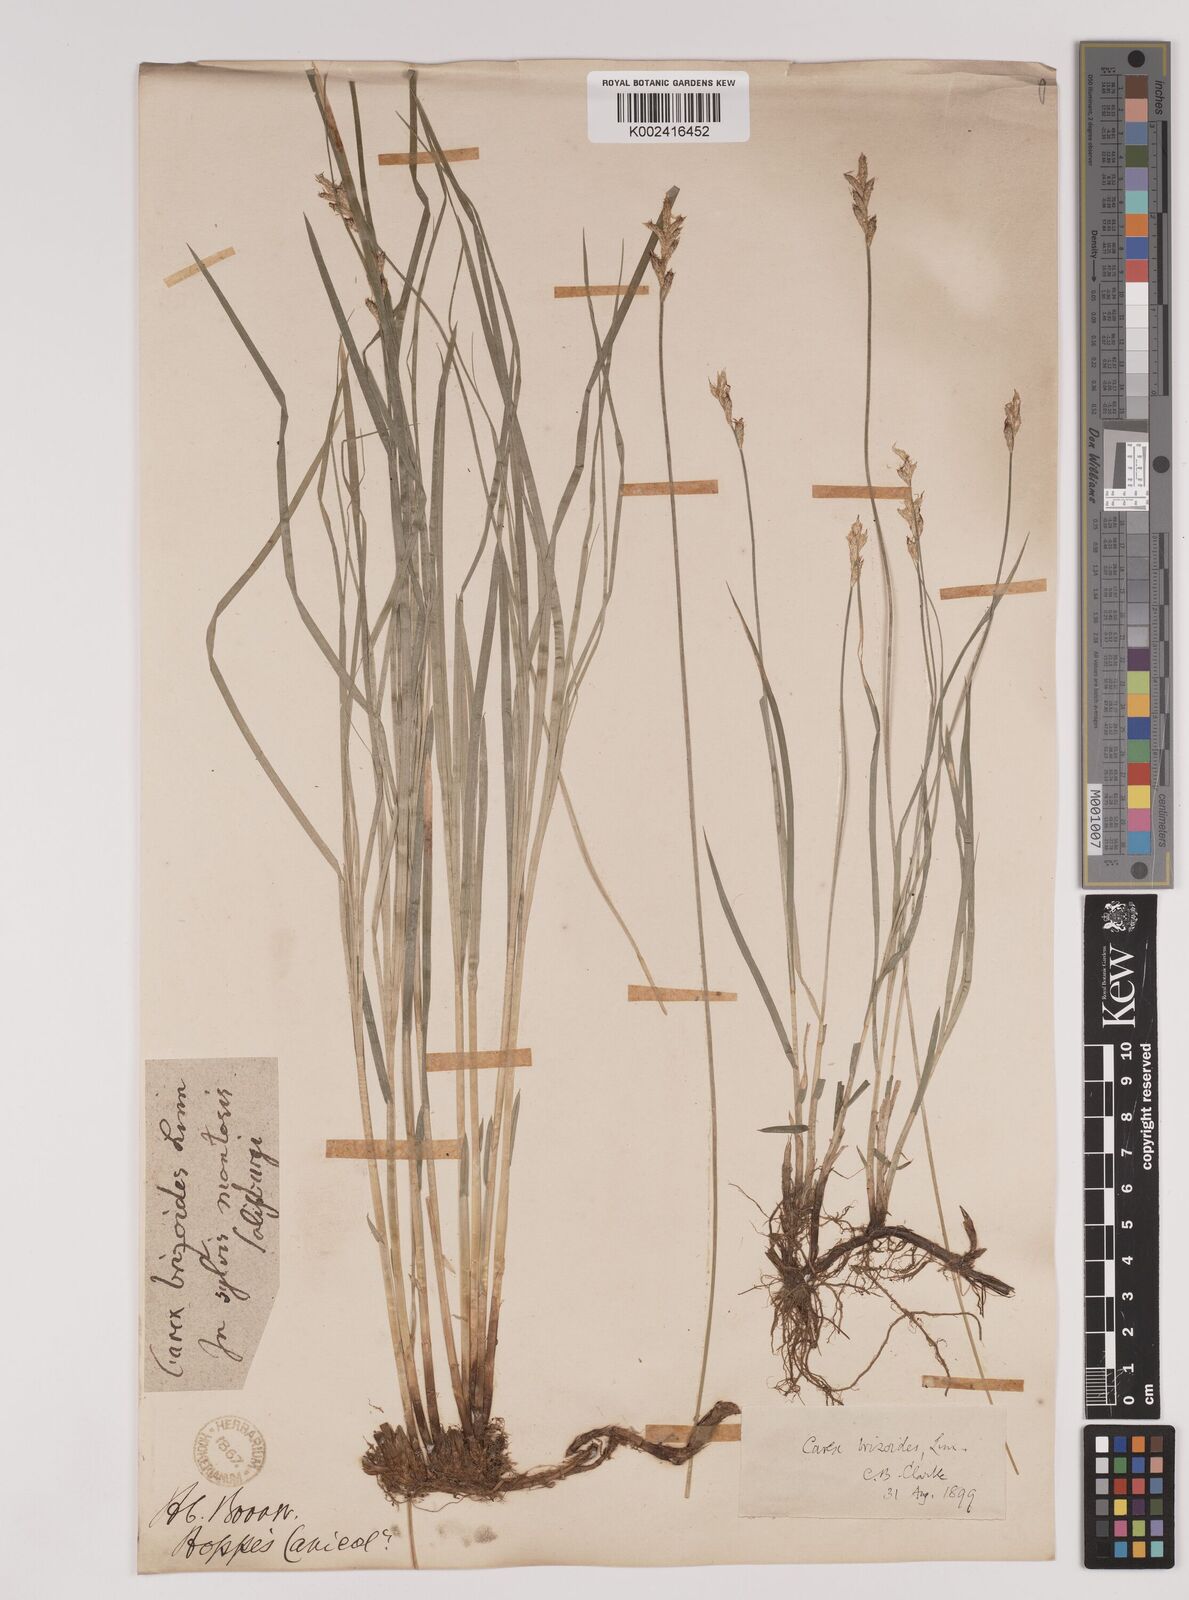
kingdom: Plantae
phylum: Tracheophyta
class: Liliopsida
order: Poales
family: Cyperaceae
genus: Carex
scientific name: Carex brizoides
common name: Quaking-grass sedge
